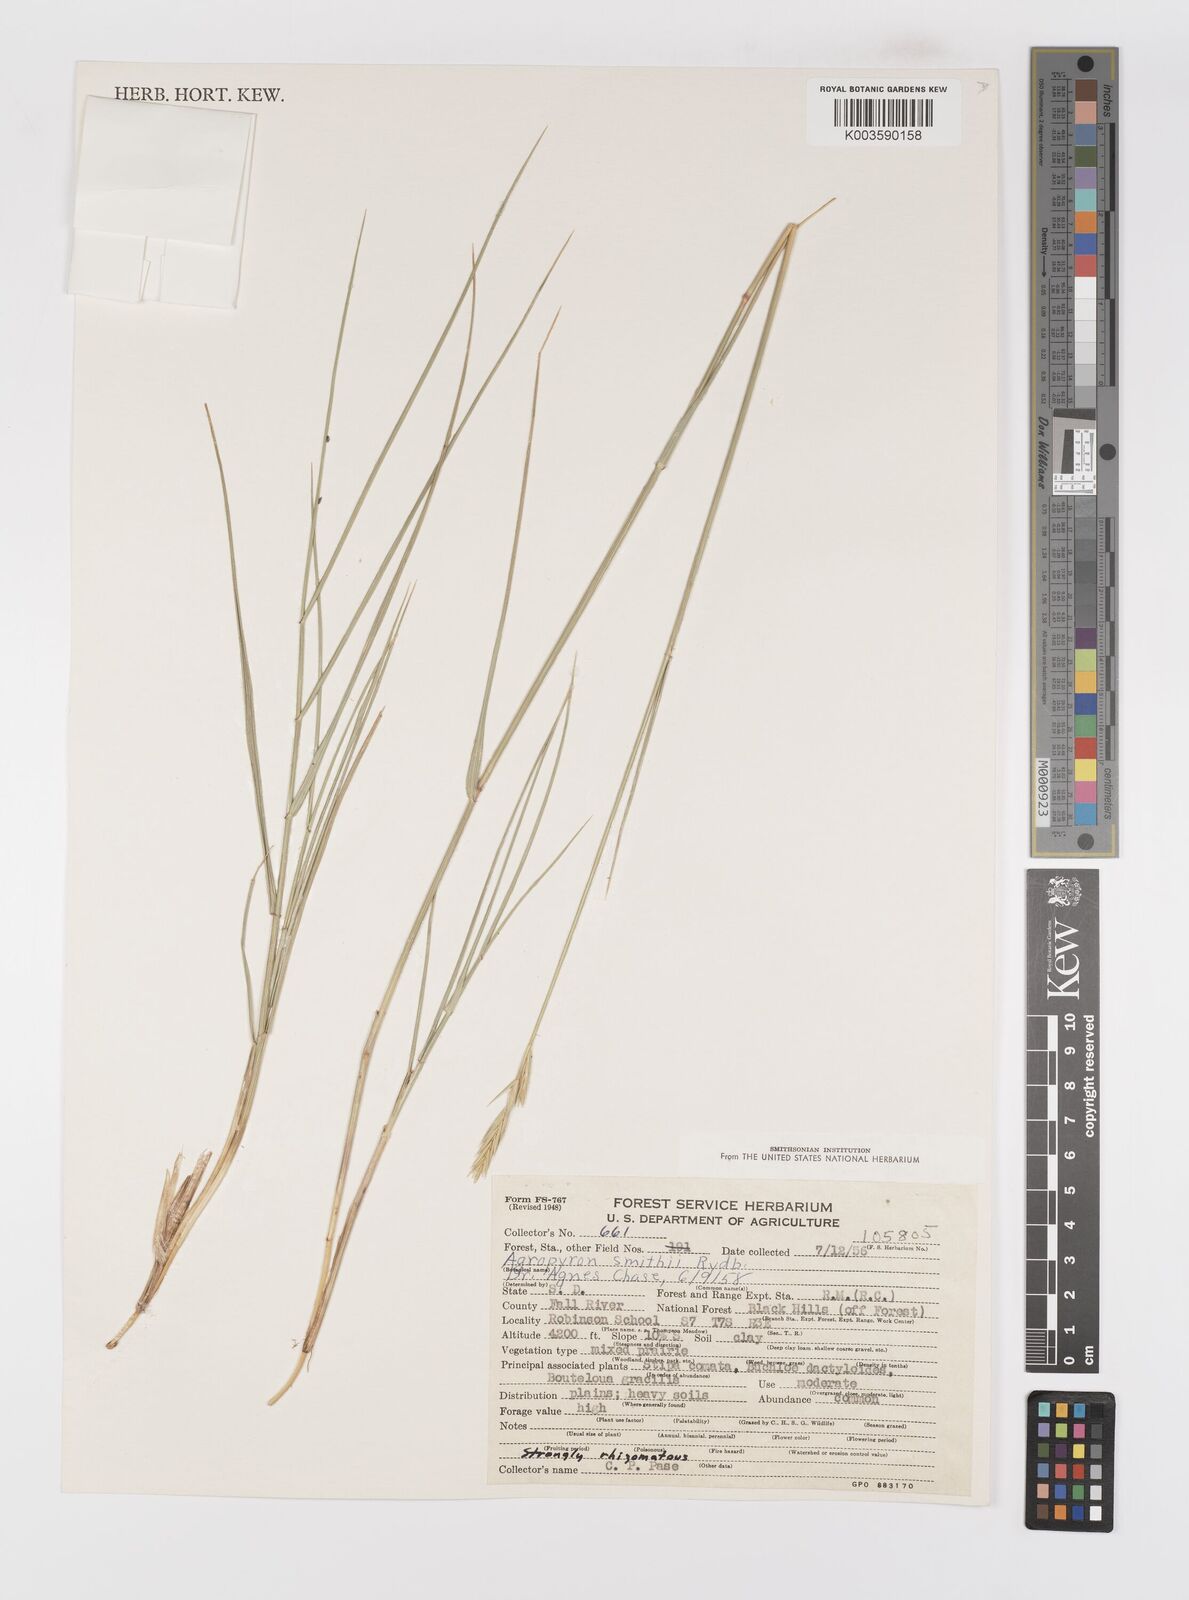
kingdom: Plantae
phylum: Tracheophyta
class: Liliopsida
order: Poales
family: Poaceae
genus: Elymus
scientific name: Elymus smithii
